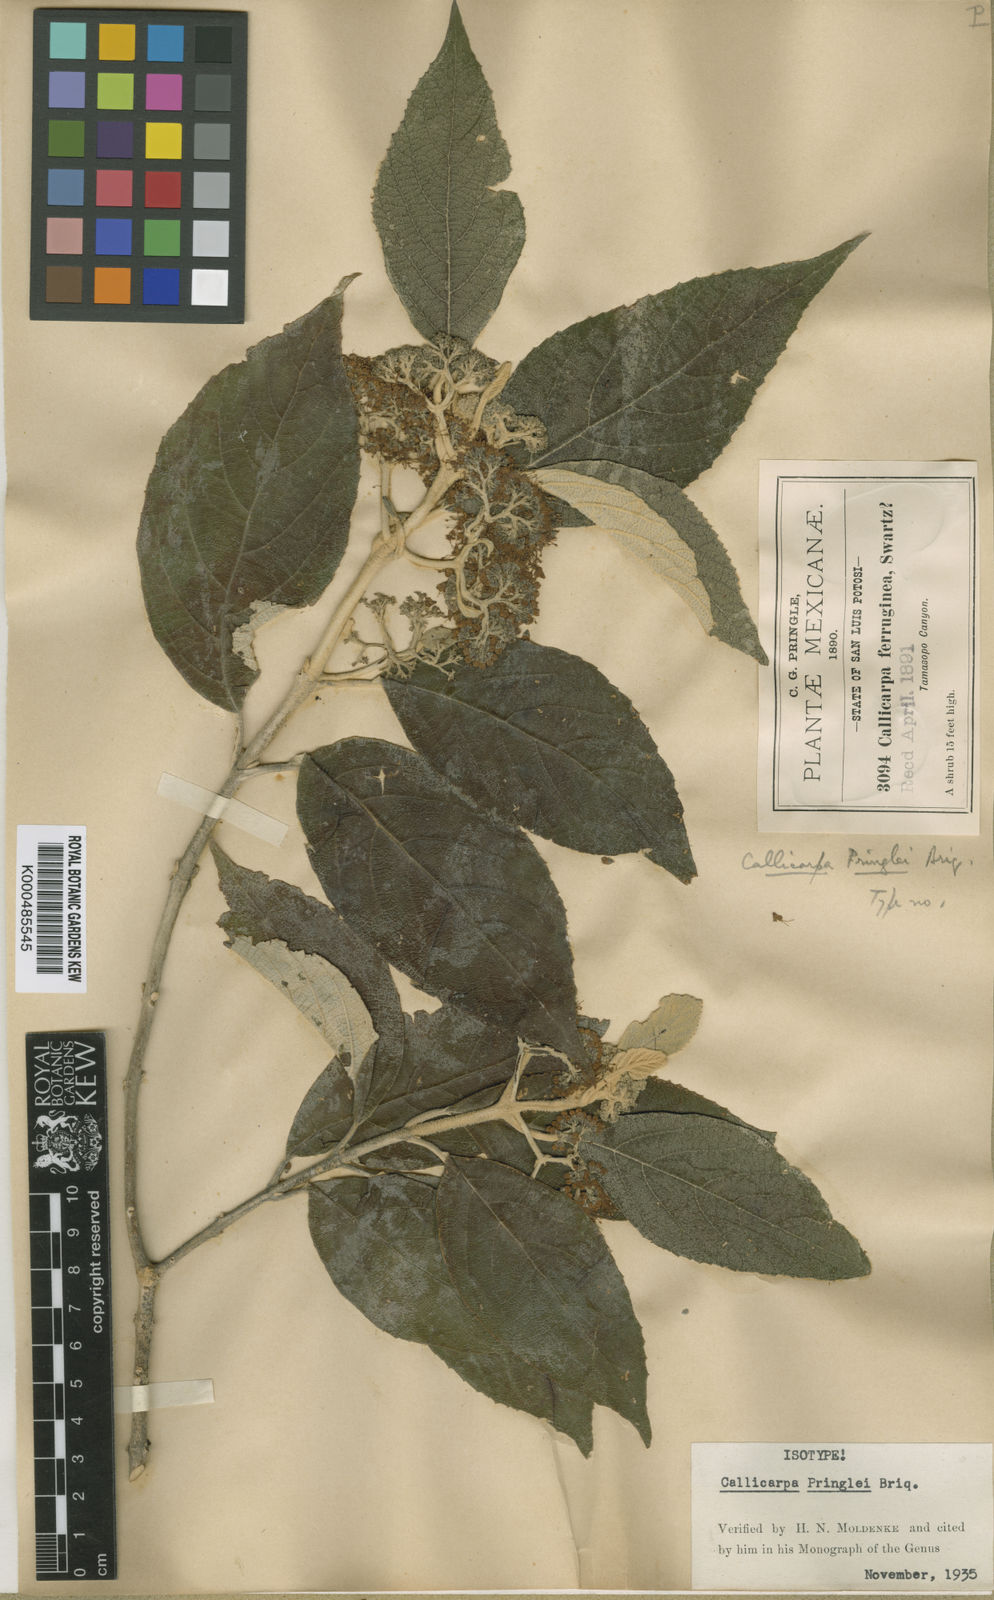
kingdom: Plantae
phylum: Tracheophyta
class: Magnoliopsida
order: Lamiales
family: Lamiaceae
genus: Callicarpa
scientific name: Callicarpa acuminata
